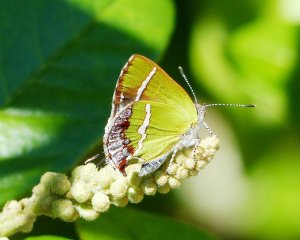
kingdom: Animalia
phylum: Arthropoda
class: Insecta
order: Lepidoptera
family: Lycaenidae
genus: Chlorostrymon
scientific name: Chlorostrymon simaethis
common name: Silver-banded Hairstreak
